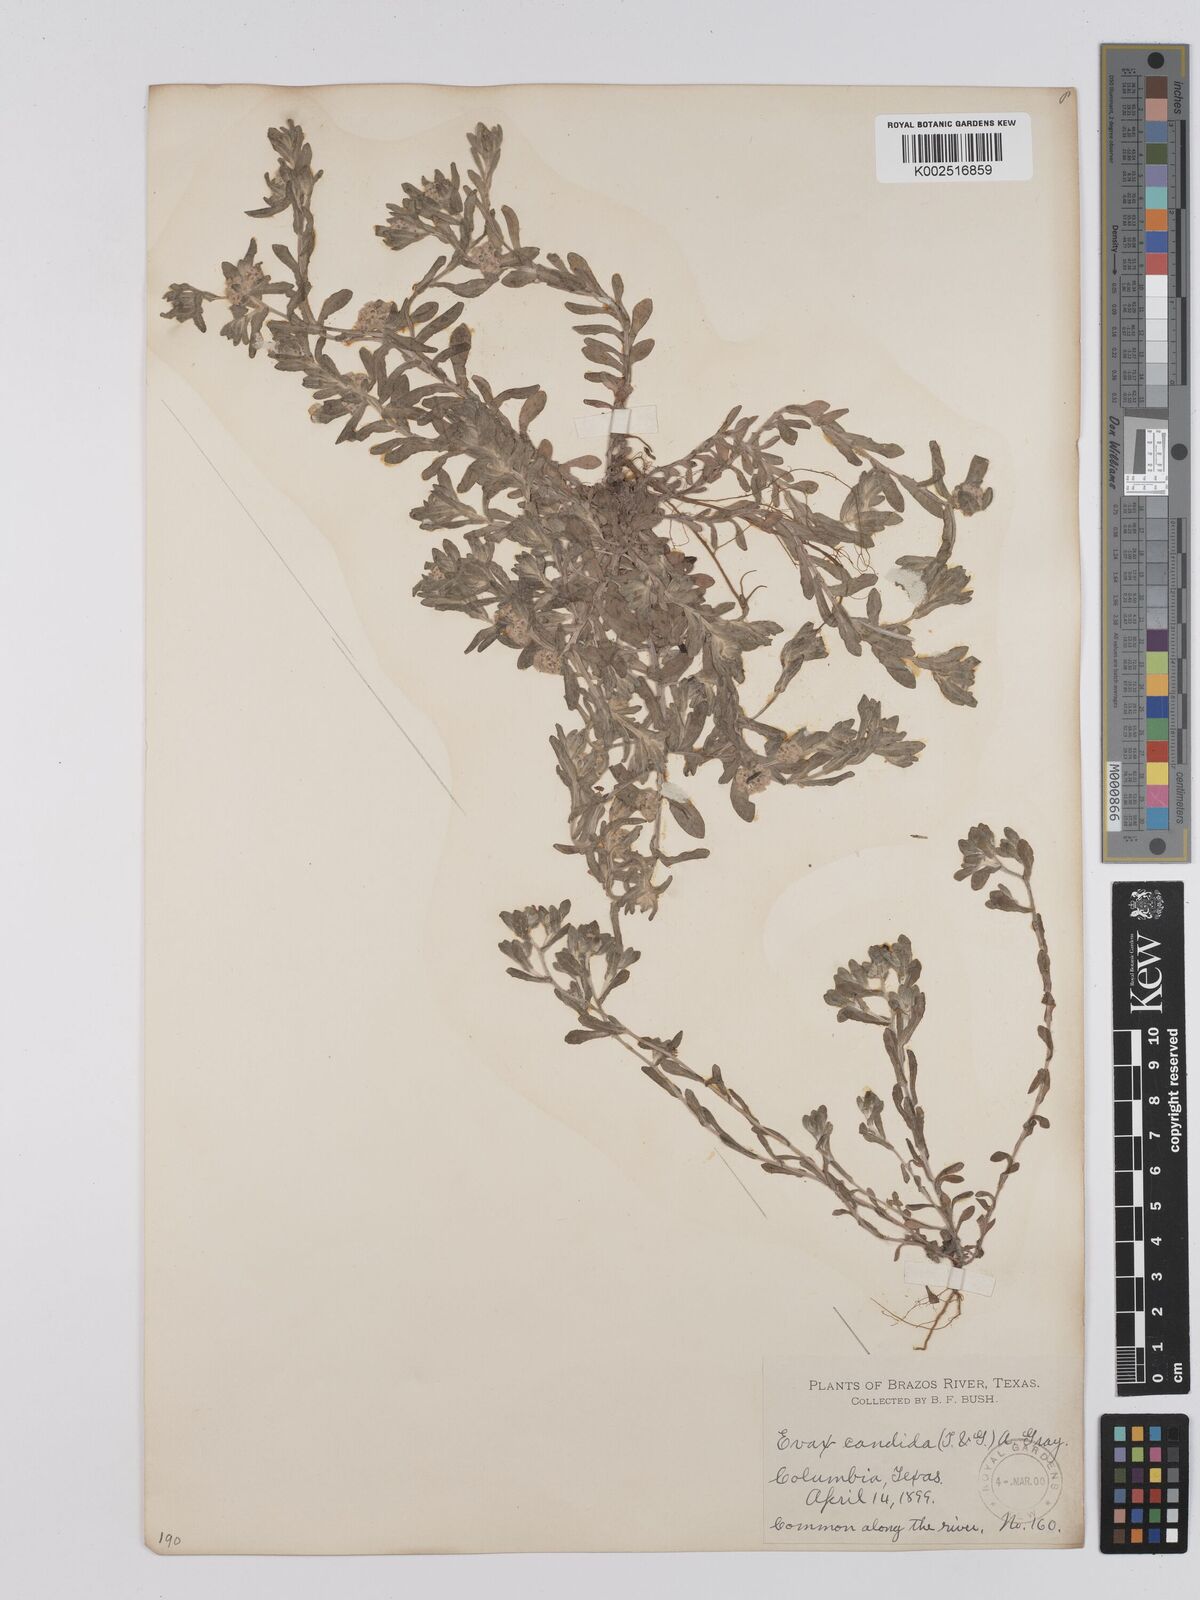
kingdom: Plantae
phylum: Tracheophyta
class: Magnoliopsida
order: Asterales
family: Asteraceae
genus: Diaperia
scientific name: Diaperia candida
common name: Silver rabbit-tobacco
